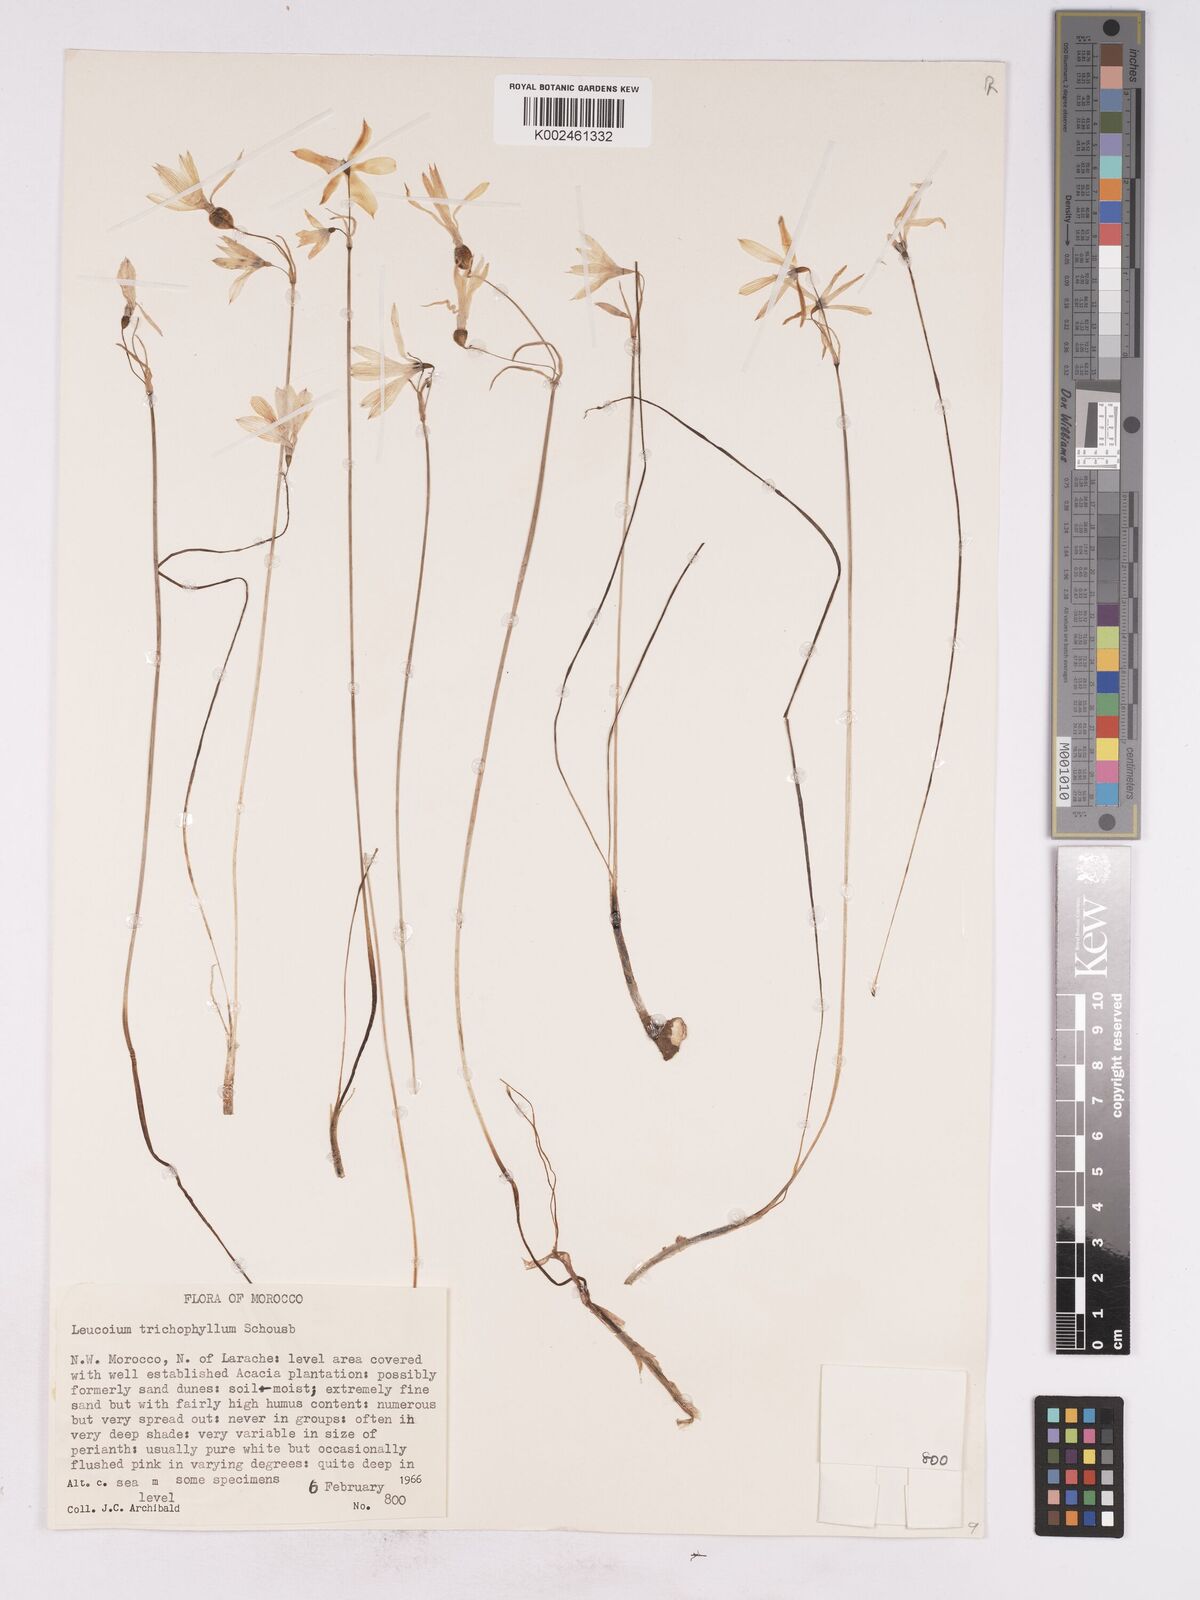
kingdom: Plantae
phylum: Tracheophyta
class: Liliopsida
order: Asparagales
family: Amaryllidaceae
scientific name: Amaryllidaceae
